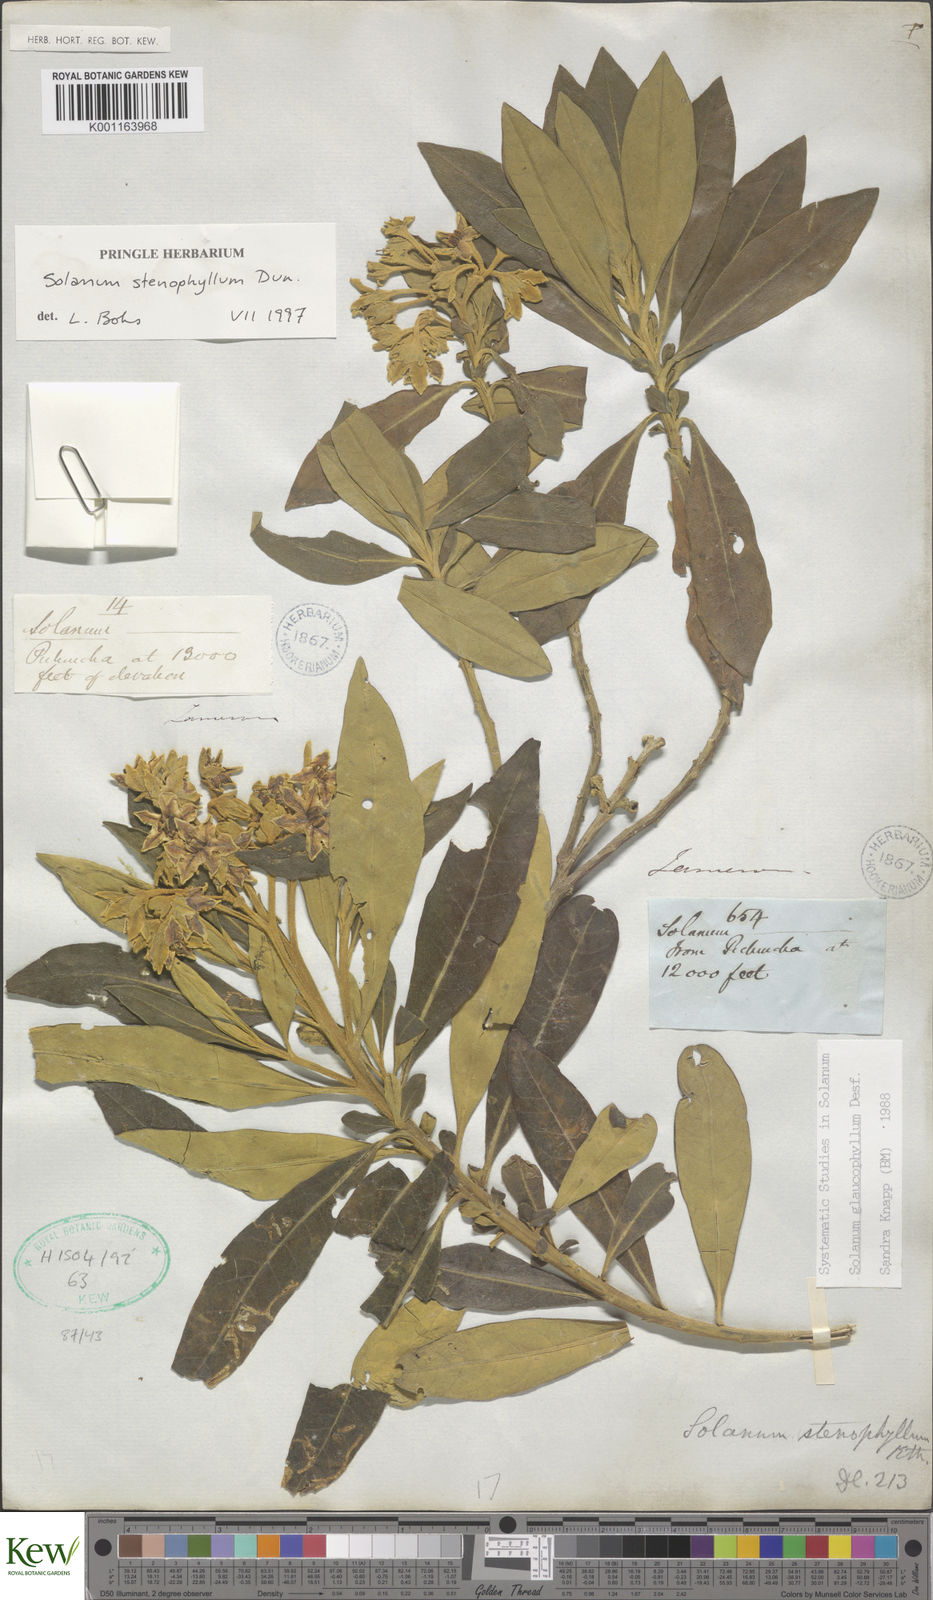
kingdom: Plantae
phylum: Tracheophyta
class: Magnoliopsida
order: Solanales
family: Solanaceae
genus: Solanum
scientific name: Solanum glaucophyllum
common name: Waxyleaf nightshade
